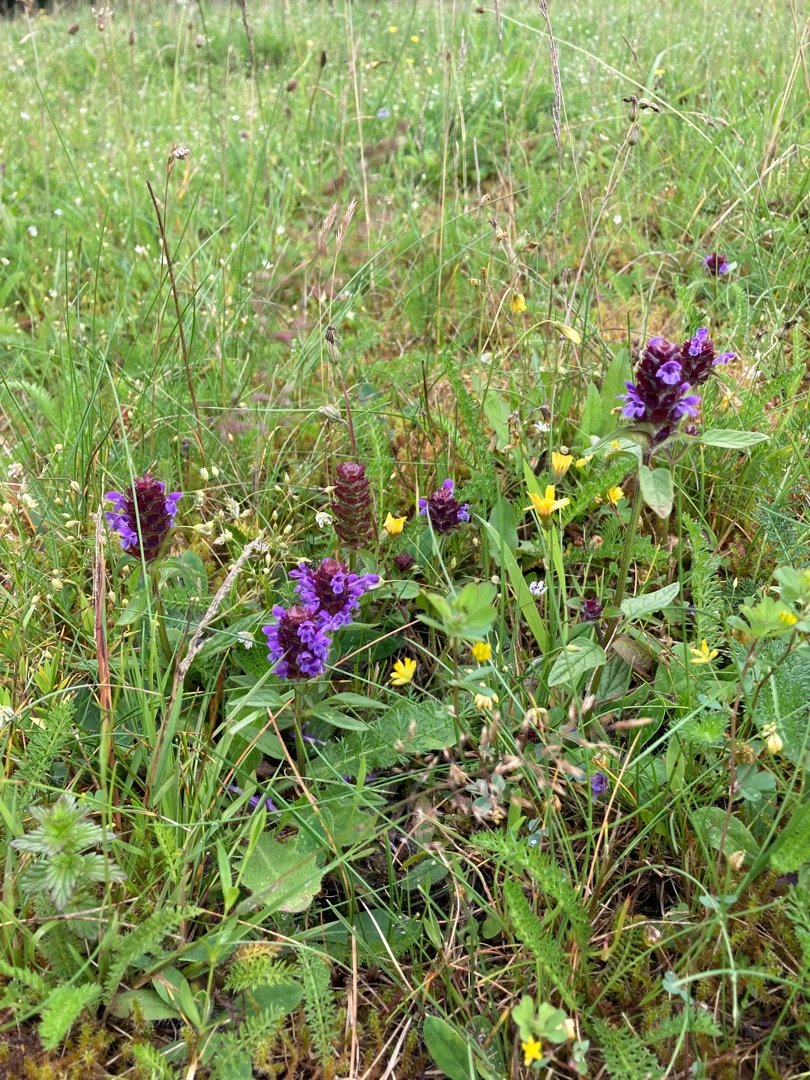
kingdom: Plantae
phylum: Tracheophyta
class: Magnoliopsida
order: Lamiales
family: Lamiaceae
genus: Prunella
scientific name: Prunella vulgaris
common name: Almindelig brunelle
